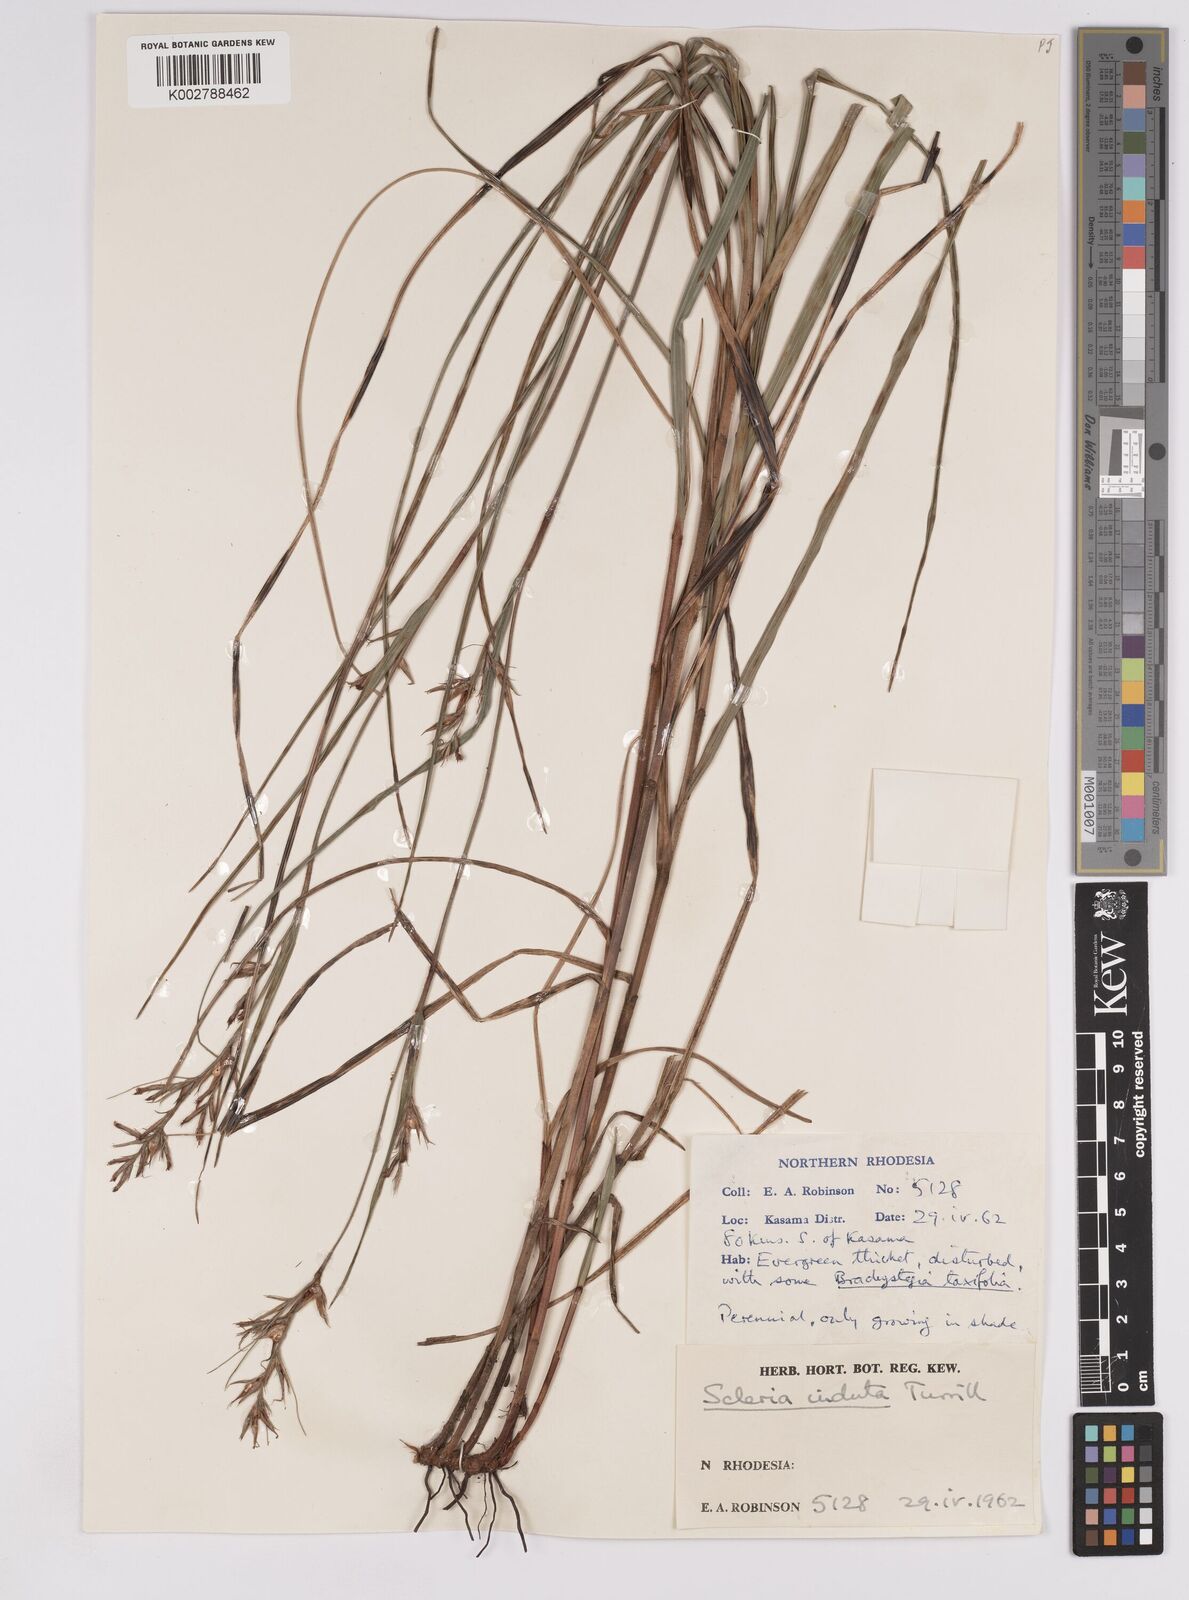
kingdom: Plantae
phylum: Tracheophyta
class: Liliopsida
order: Poales
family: Cyperaceae
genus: Scleria
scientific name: Scleria induta
